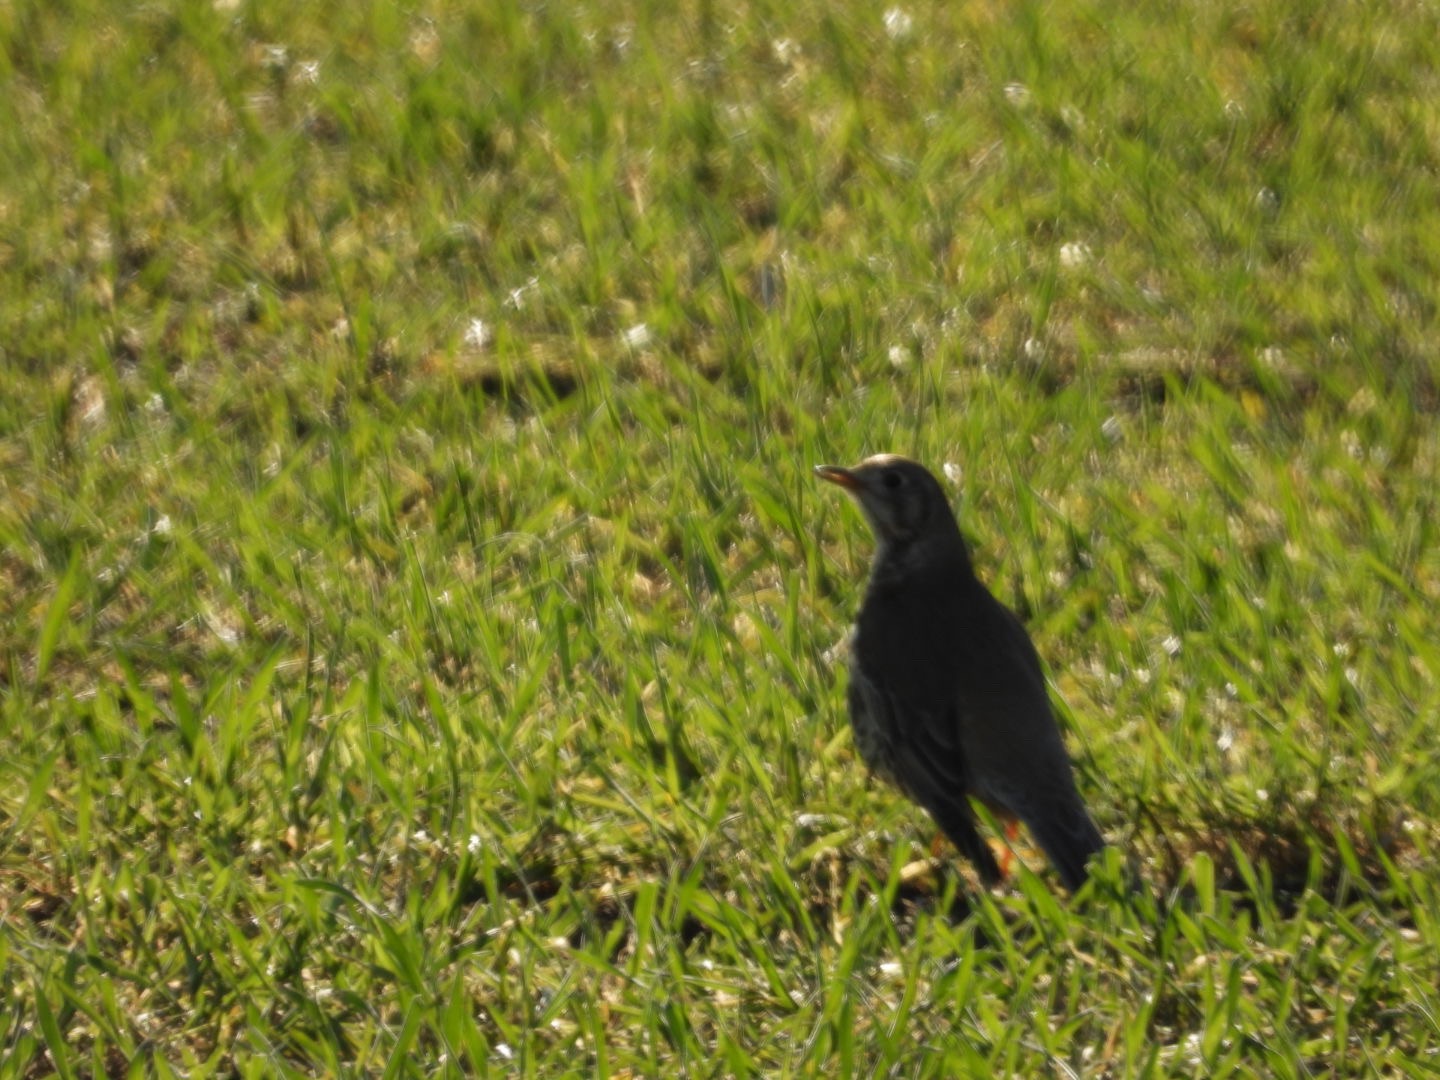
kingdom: Animalia
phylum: Chordata
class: Aves
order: Passeriformes
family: Turdidae
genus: Turdus
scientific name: Turdus viscivorus
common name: Misteldrossel
